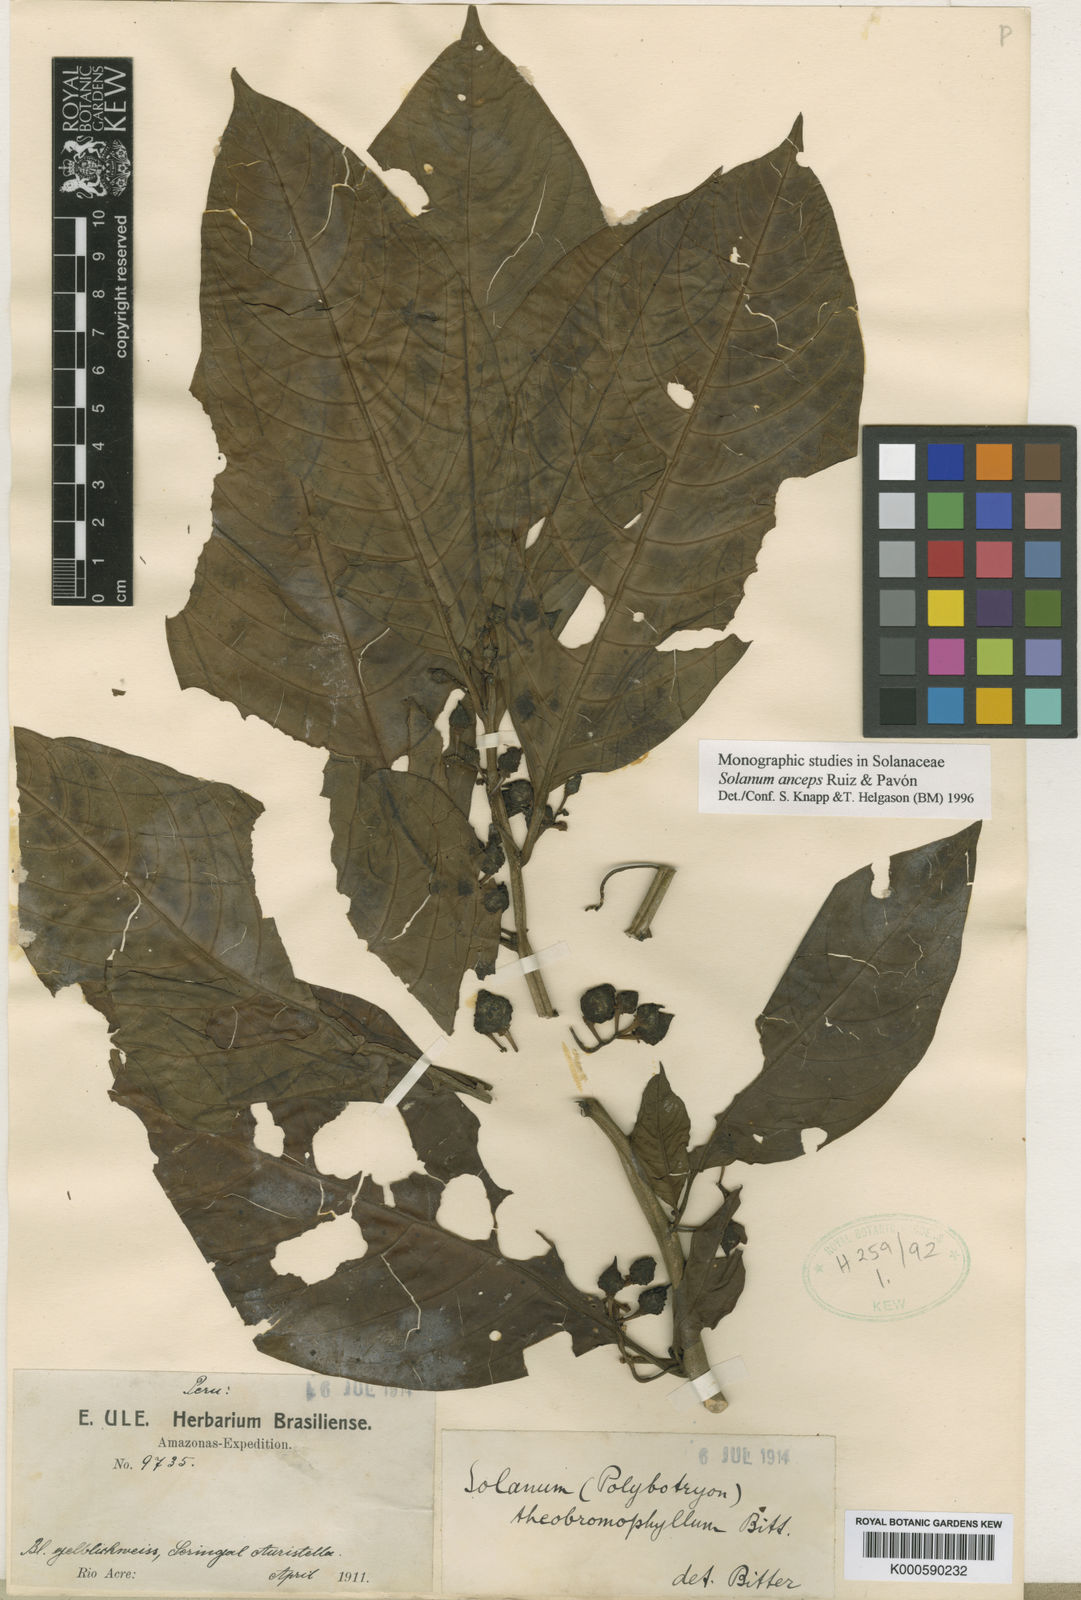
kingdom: Plantae
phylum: Tracheophyta
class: Magnoliopsida
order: Solanales
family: Solanaceae
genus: Solanum
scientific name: Solanum anceps
